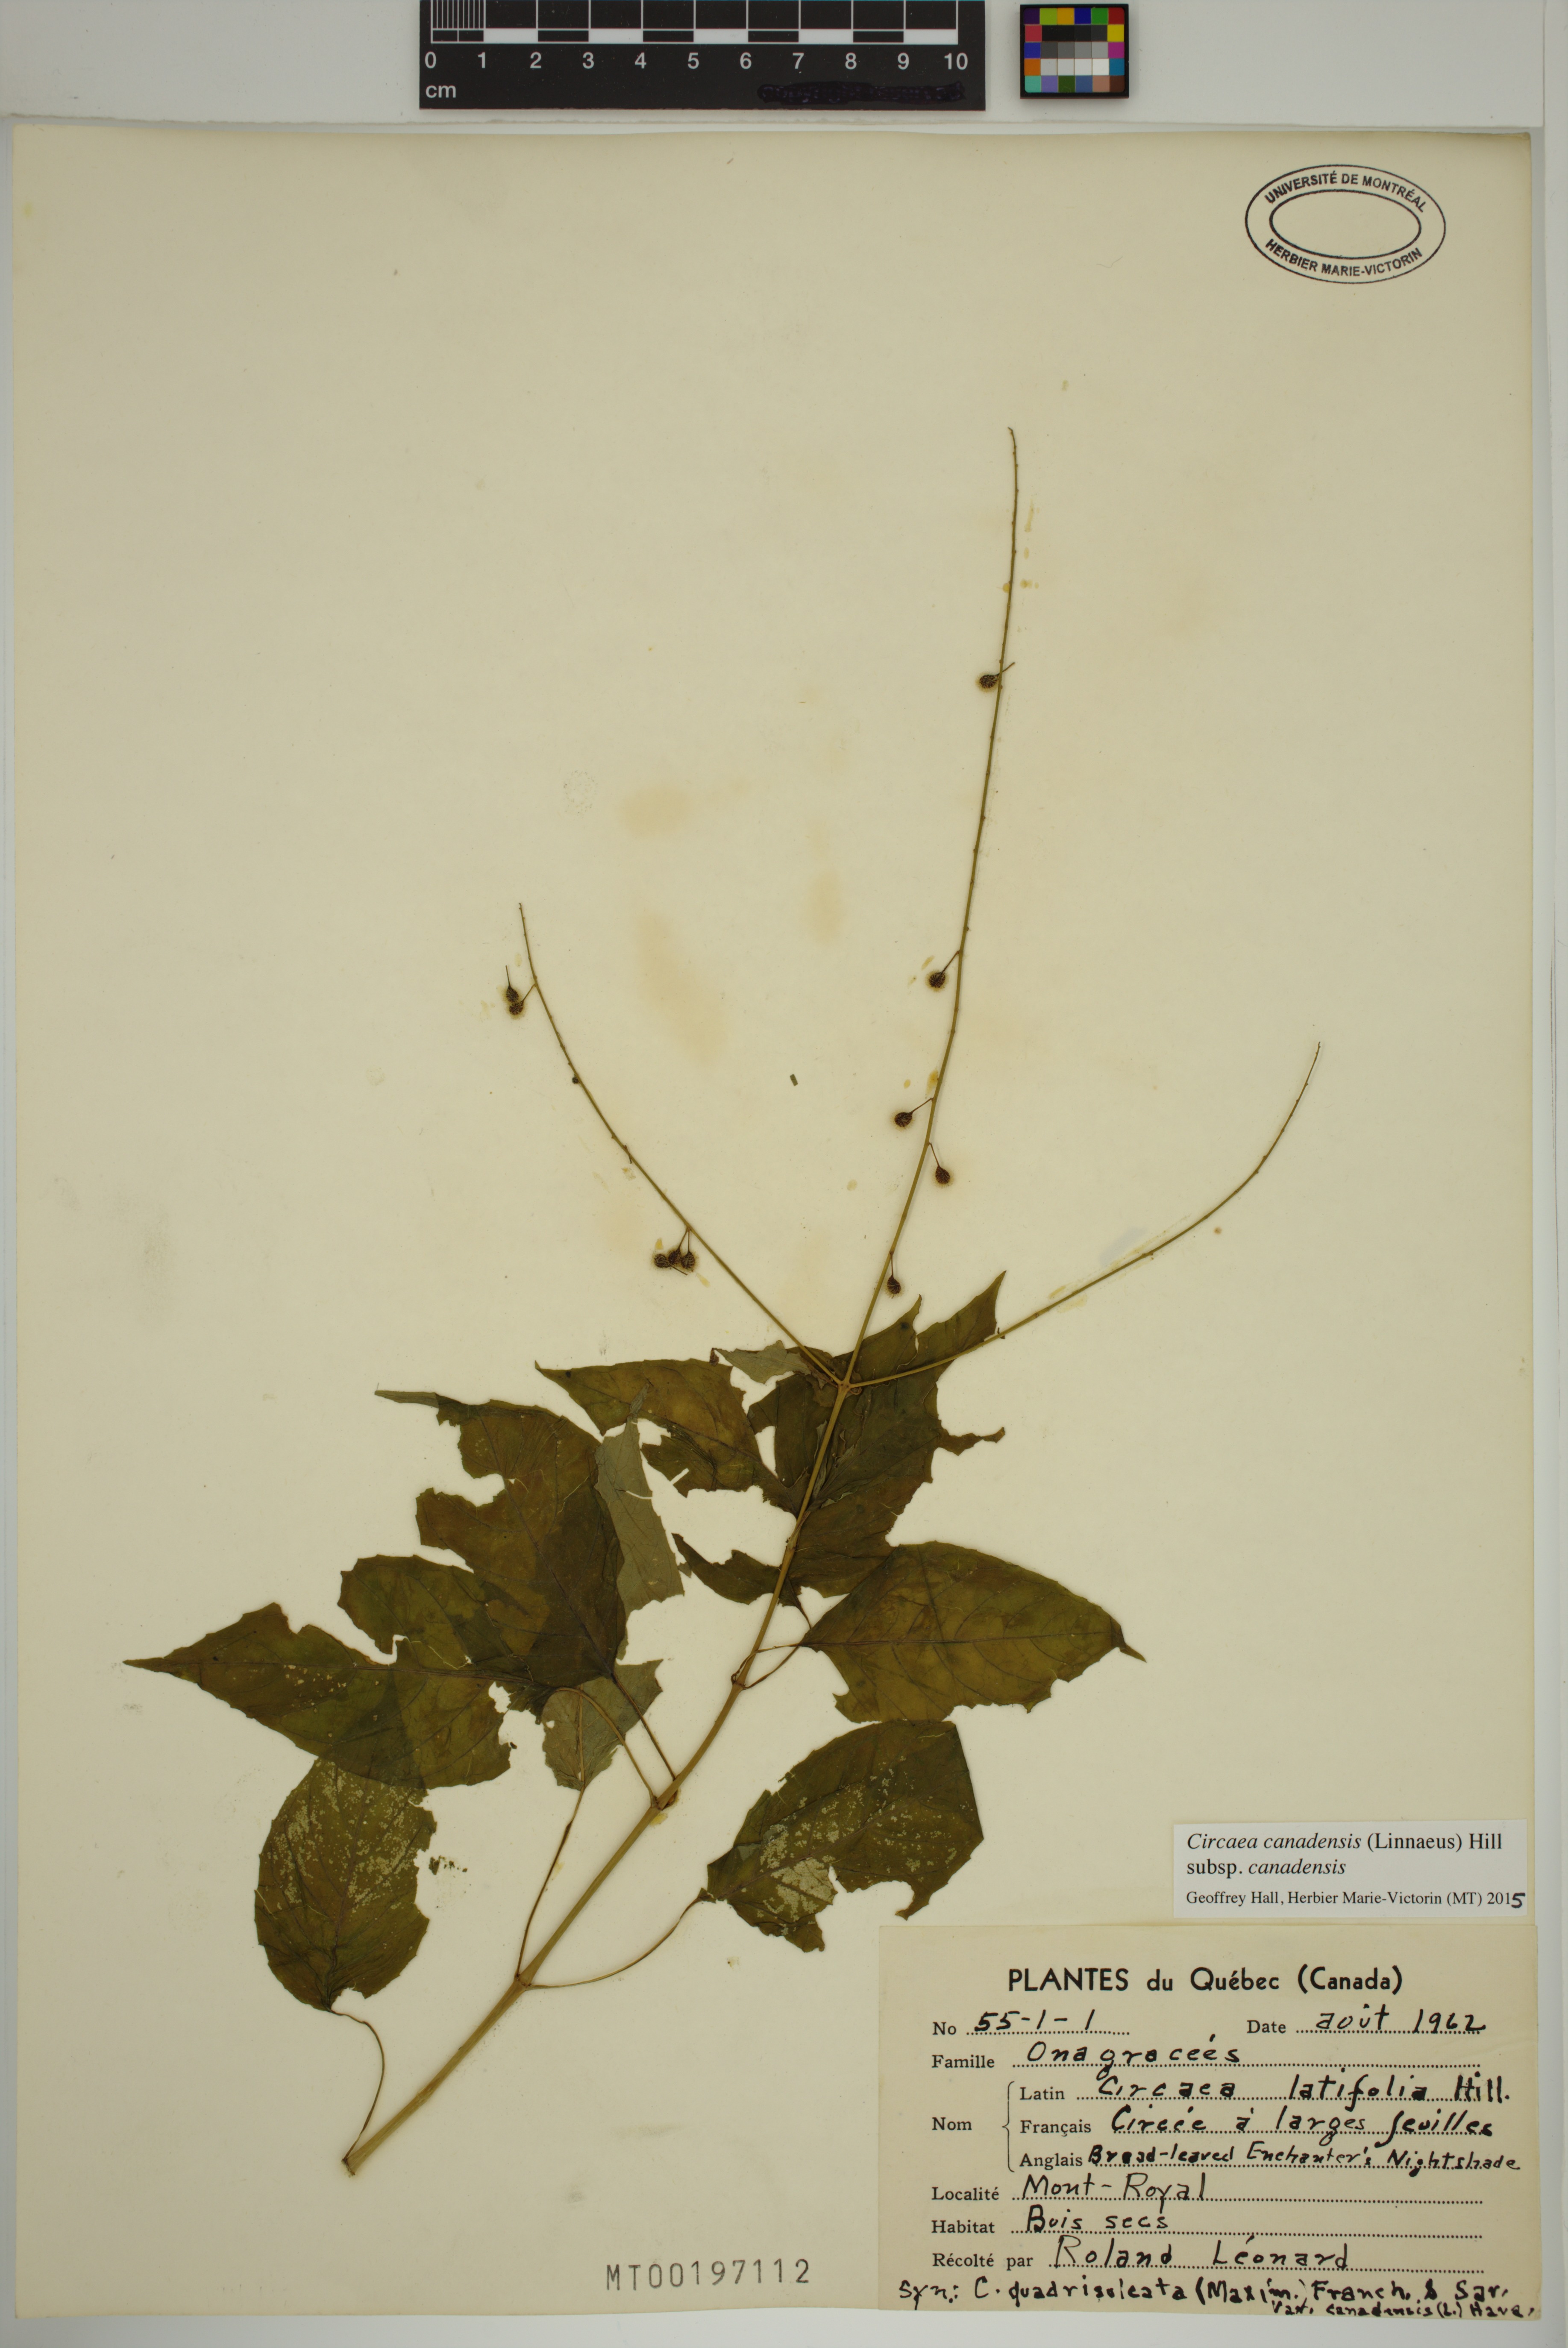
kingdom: Plantae
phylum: Tracheophyta
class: Magnoliopsida
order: Myrtales
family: Onagraceae
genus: Circaea
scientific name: Circaea canadensis
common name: Broad-leaved enchanter's nightshade
